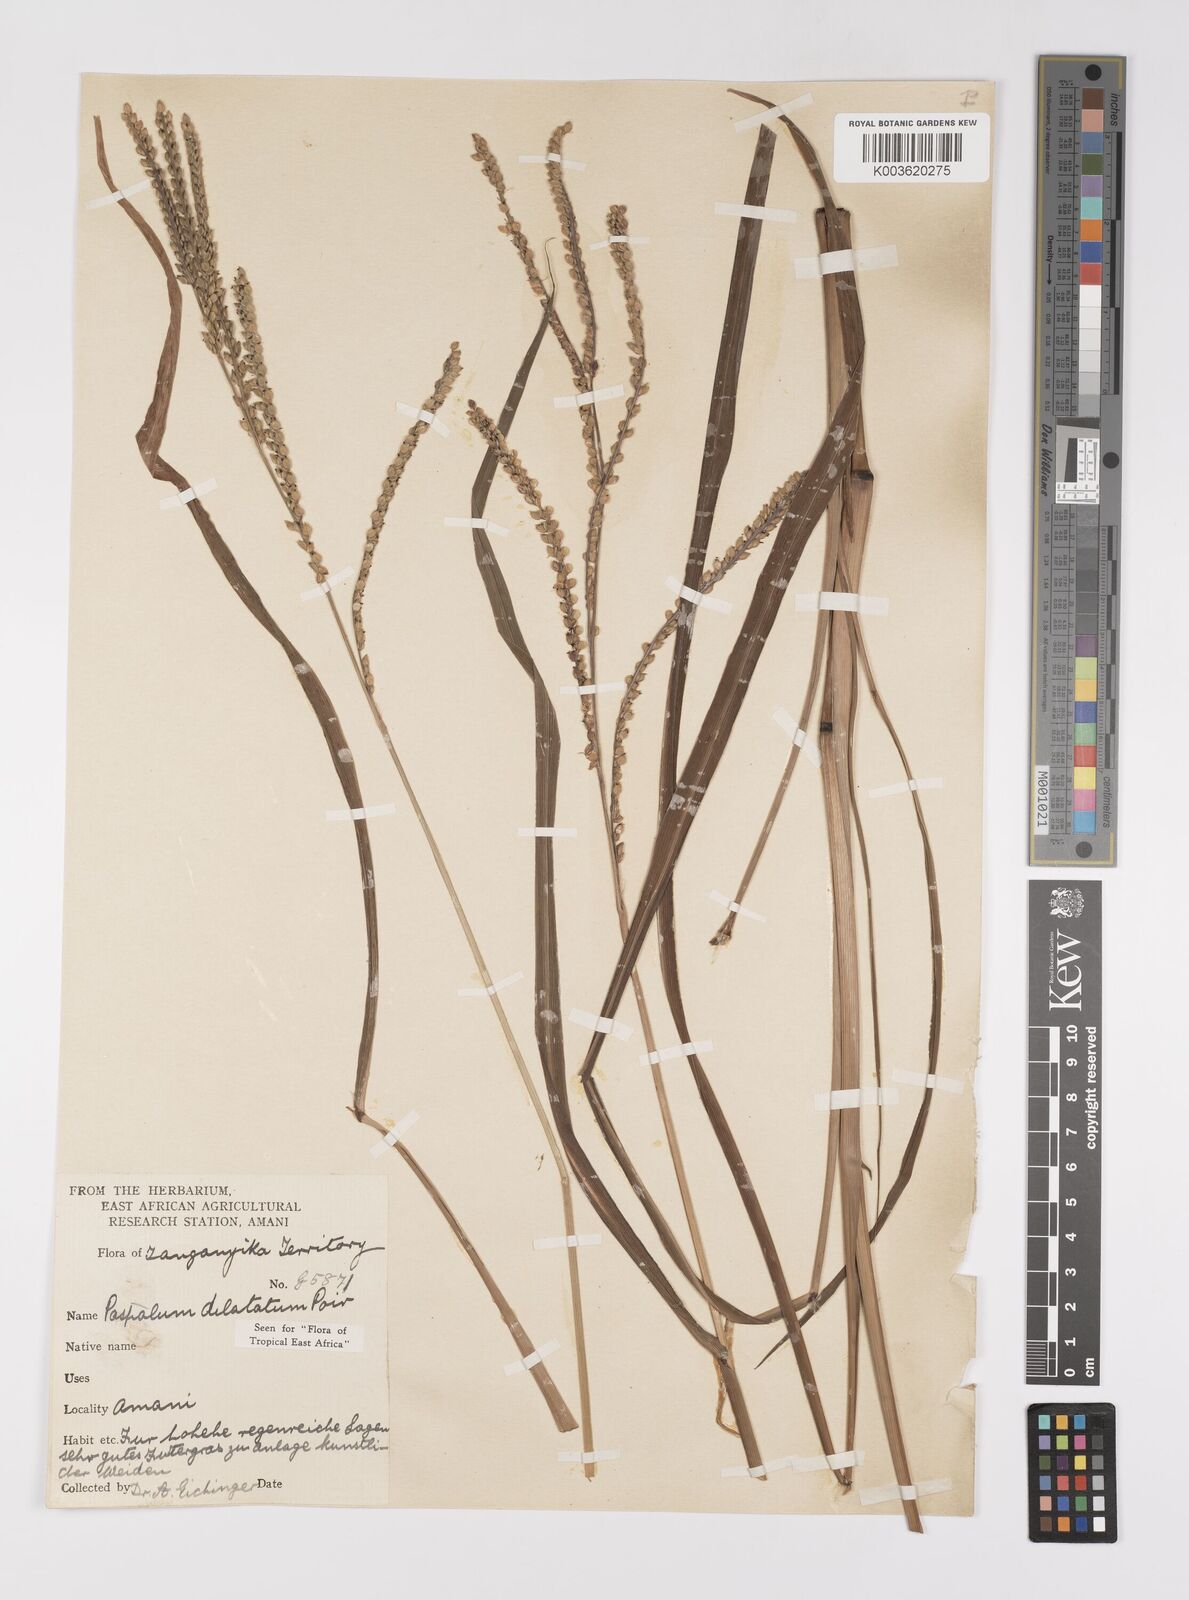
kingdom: Plantae
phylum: Tracheophyta
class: Liliopsida
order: Poales
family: Poaceae
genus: Paspalum
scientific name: Paspalum dilatatum
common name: Dallisgrass
